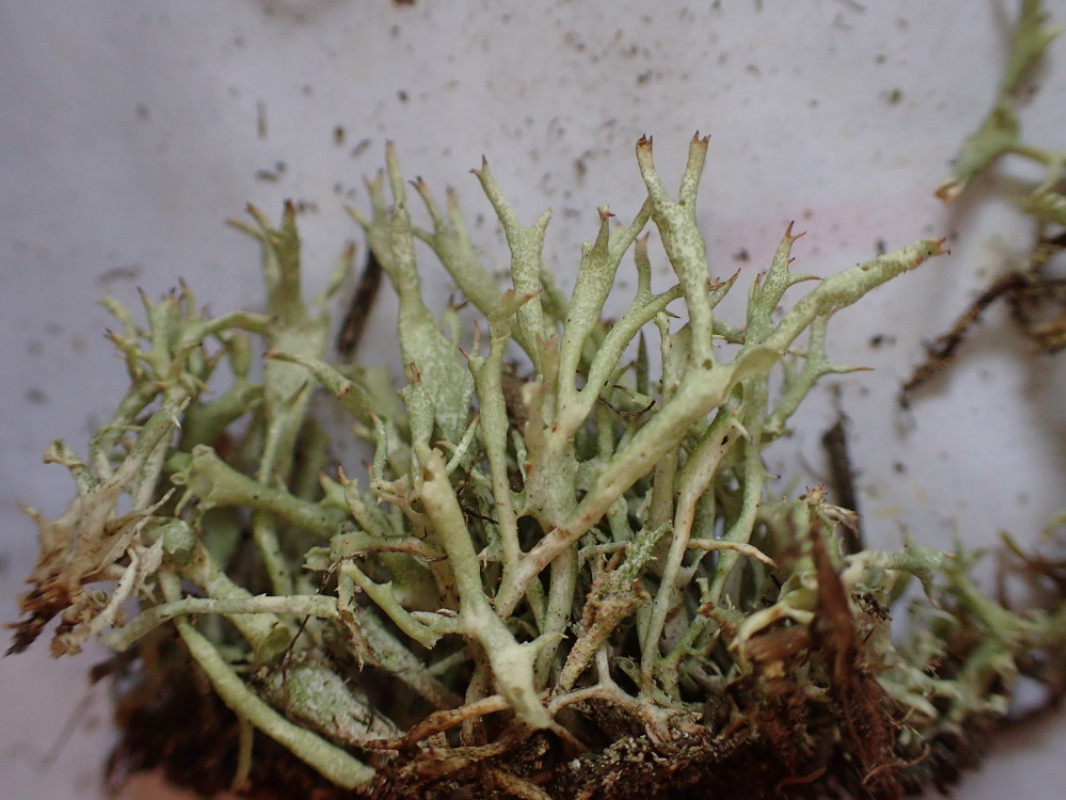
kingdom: Fungi
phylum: Ascomycota
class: Lecanoromycetes
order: Lecanorales
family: Cladoniaceae
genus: Cladonia
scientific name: Cladonia uncialis
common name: pigget bægerlav
